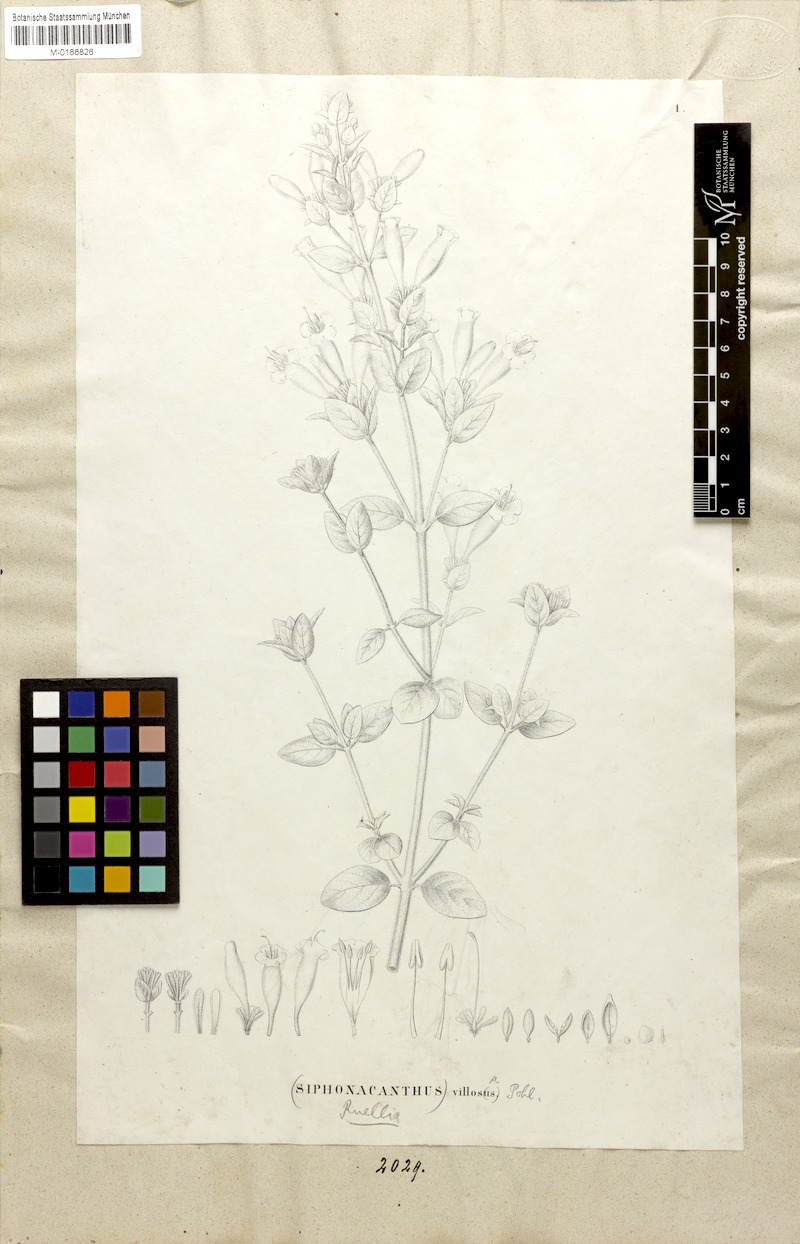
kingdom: Plantae
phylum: Tracheophyta
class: Magnoliopsida
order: Lamiales
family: Acanthaceae
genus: Ruellia
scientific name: Ruellia villosa
